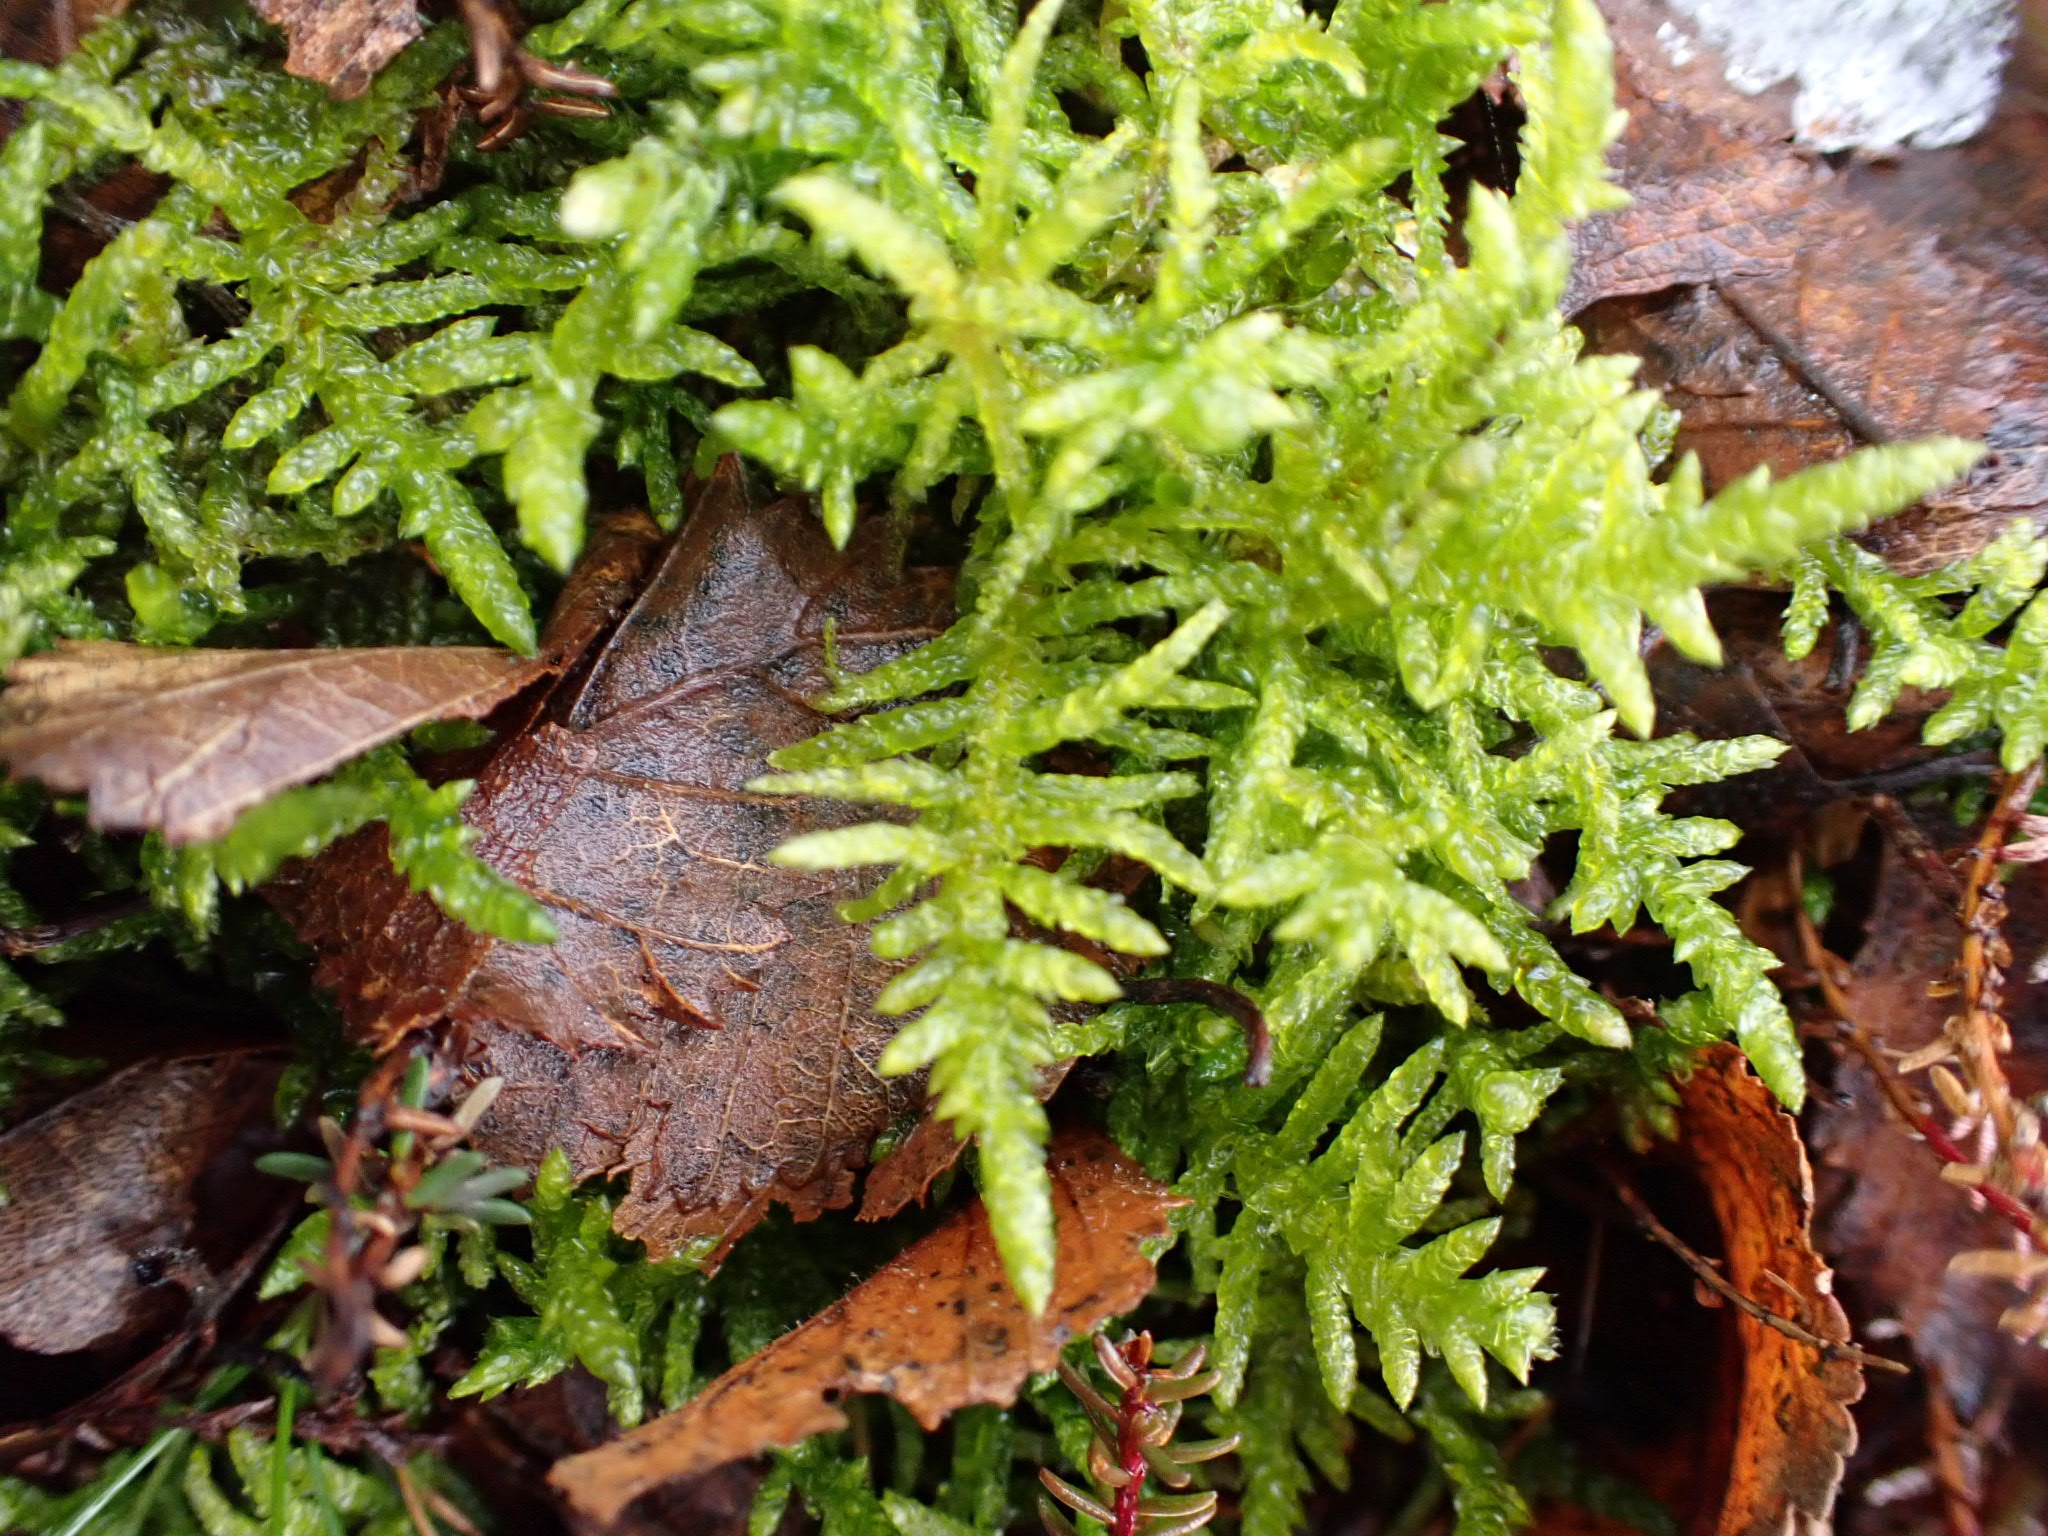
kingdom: Plantae
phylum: Bryophyta
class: Bryopsida
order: Hypnales
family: Brachytheciaceae
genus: Pseudoscleropodium
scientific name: Pseudoscleropodium purum
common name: Hulbladet fedtmos
